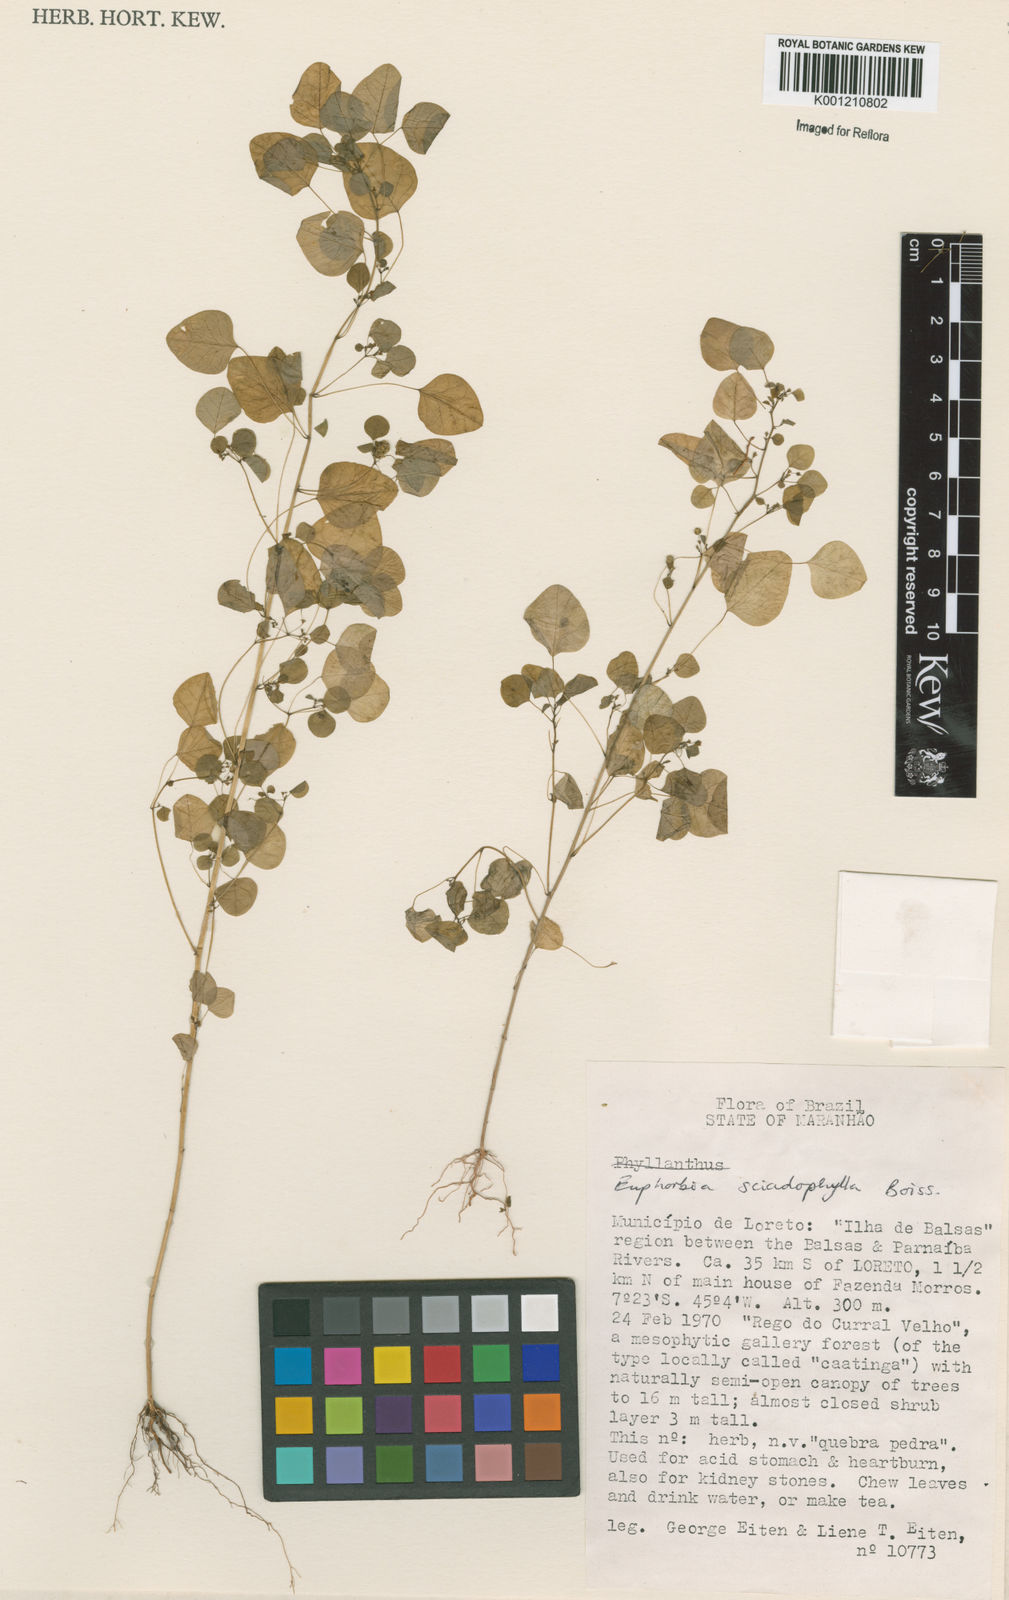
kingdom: Plantae
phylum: Tracheophyta
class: Magnoliopsida
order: Malpighiales
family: Euphorbiaceae
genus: Euphorbia
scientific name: Euphorbia sciadophila
